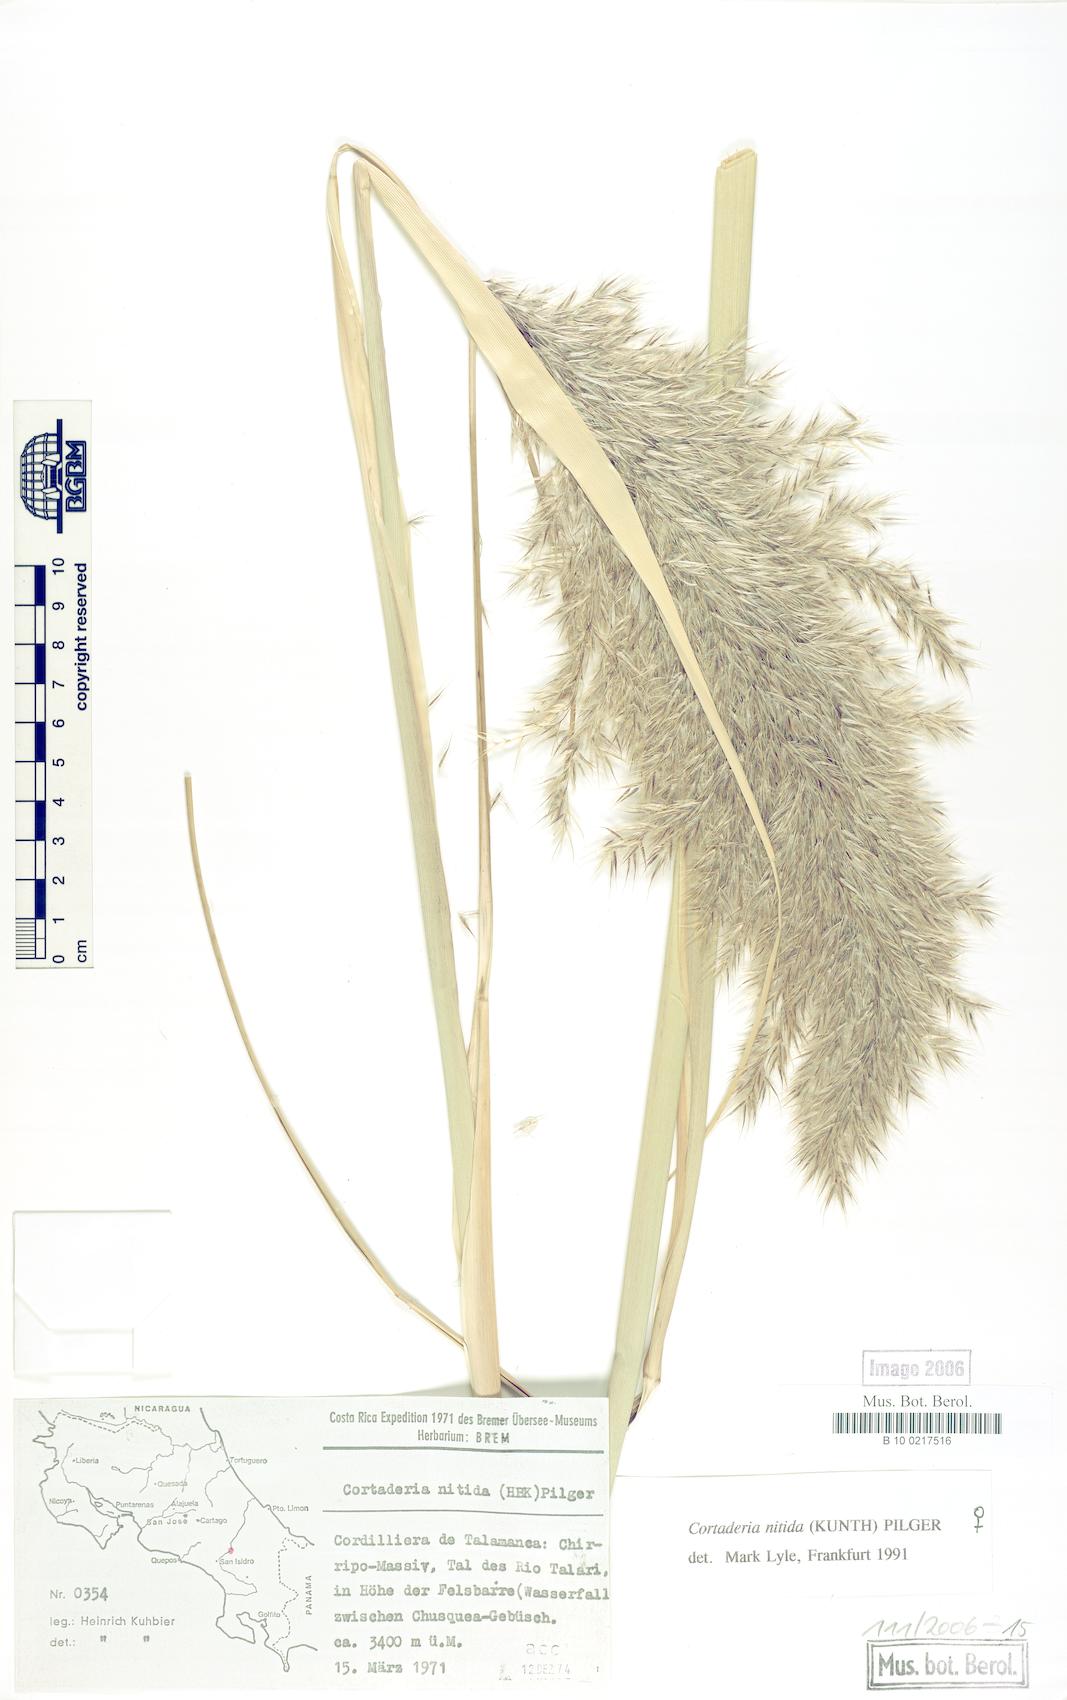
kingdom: Plantae
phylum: Tracheophyta
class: Liliopsida
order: Poales
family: Poaceae
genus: Cortaderia
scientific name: Cortaderia nitida
